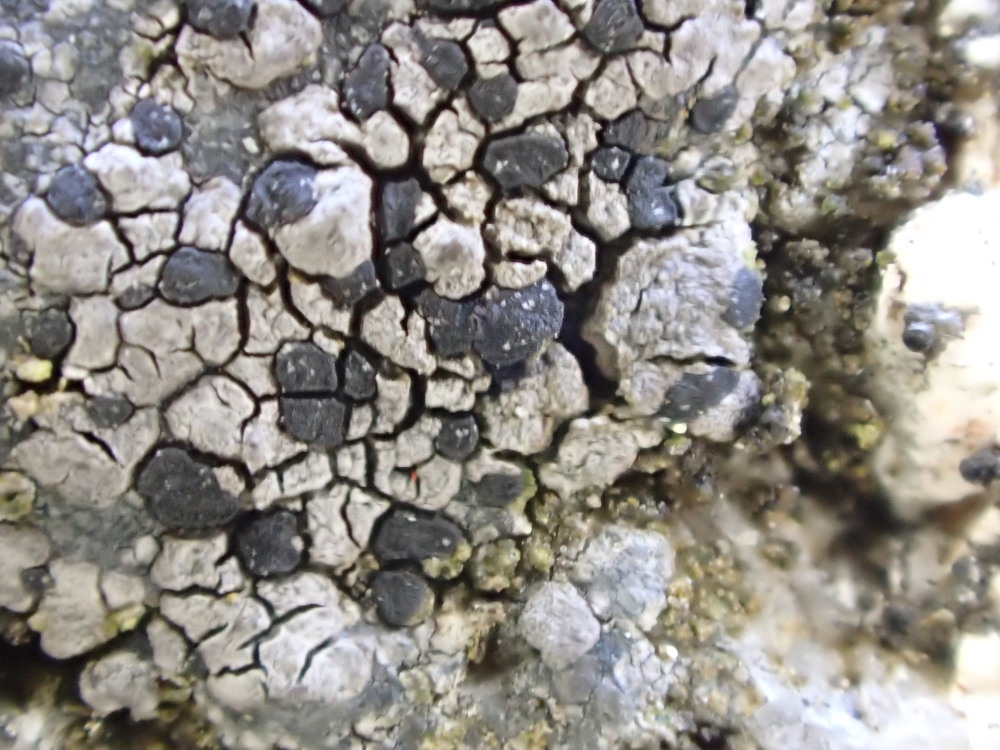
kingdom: Fungi
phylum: Ascomycota
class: Lecanoromycetes
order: Rhizocarpales
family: Rhizocarpaceae
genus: Rhizocarpon
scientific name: Rhizocarpon reductum
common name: mørk landkortlav
